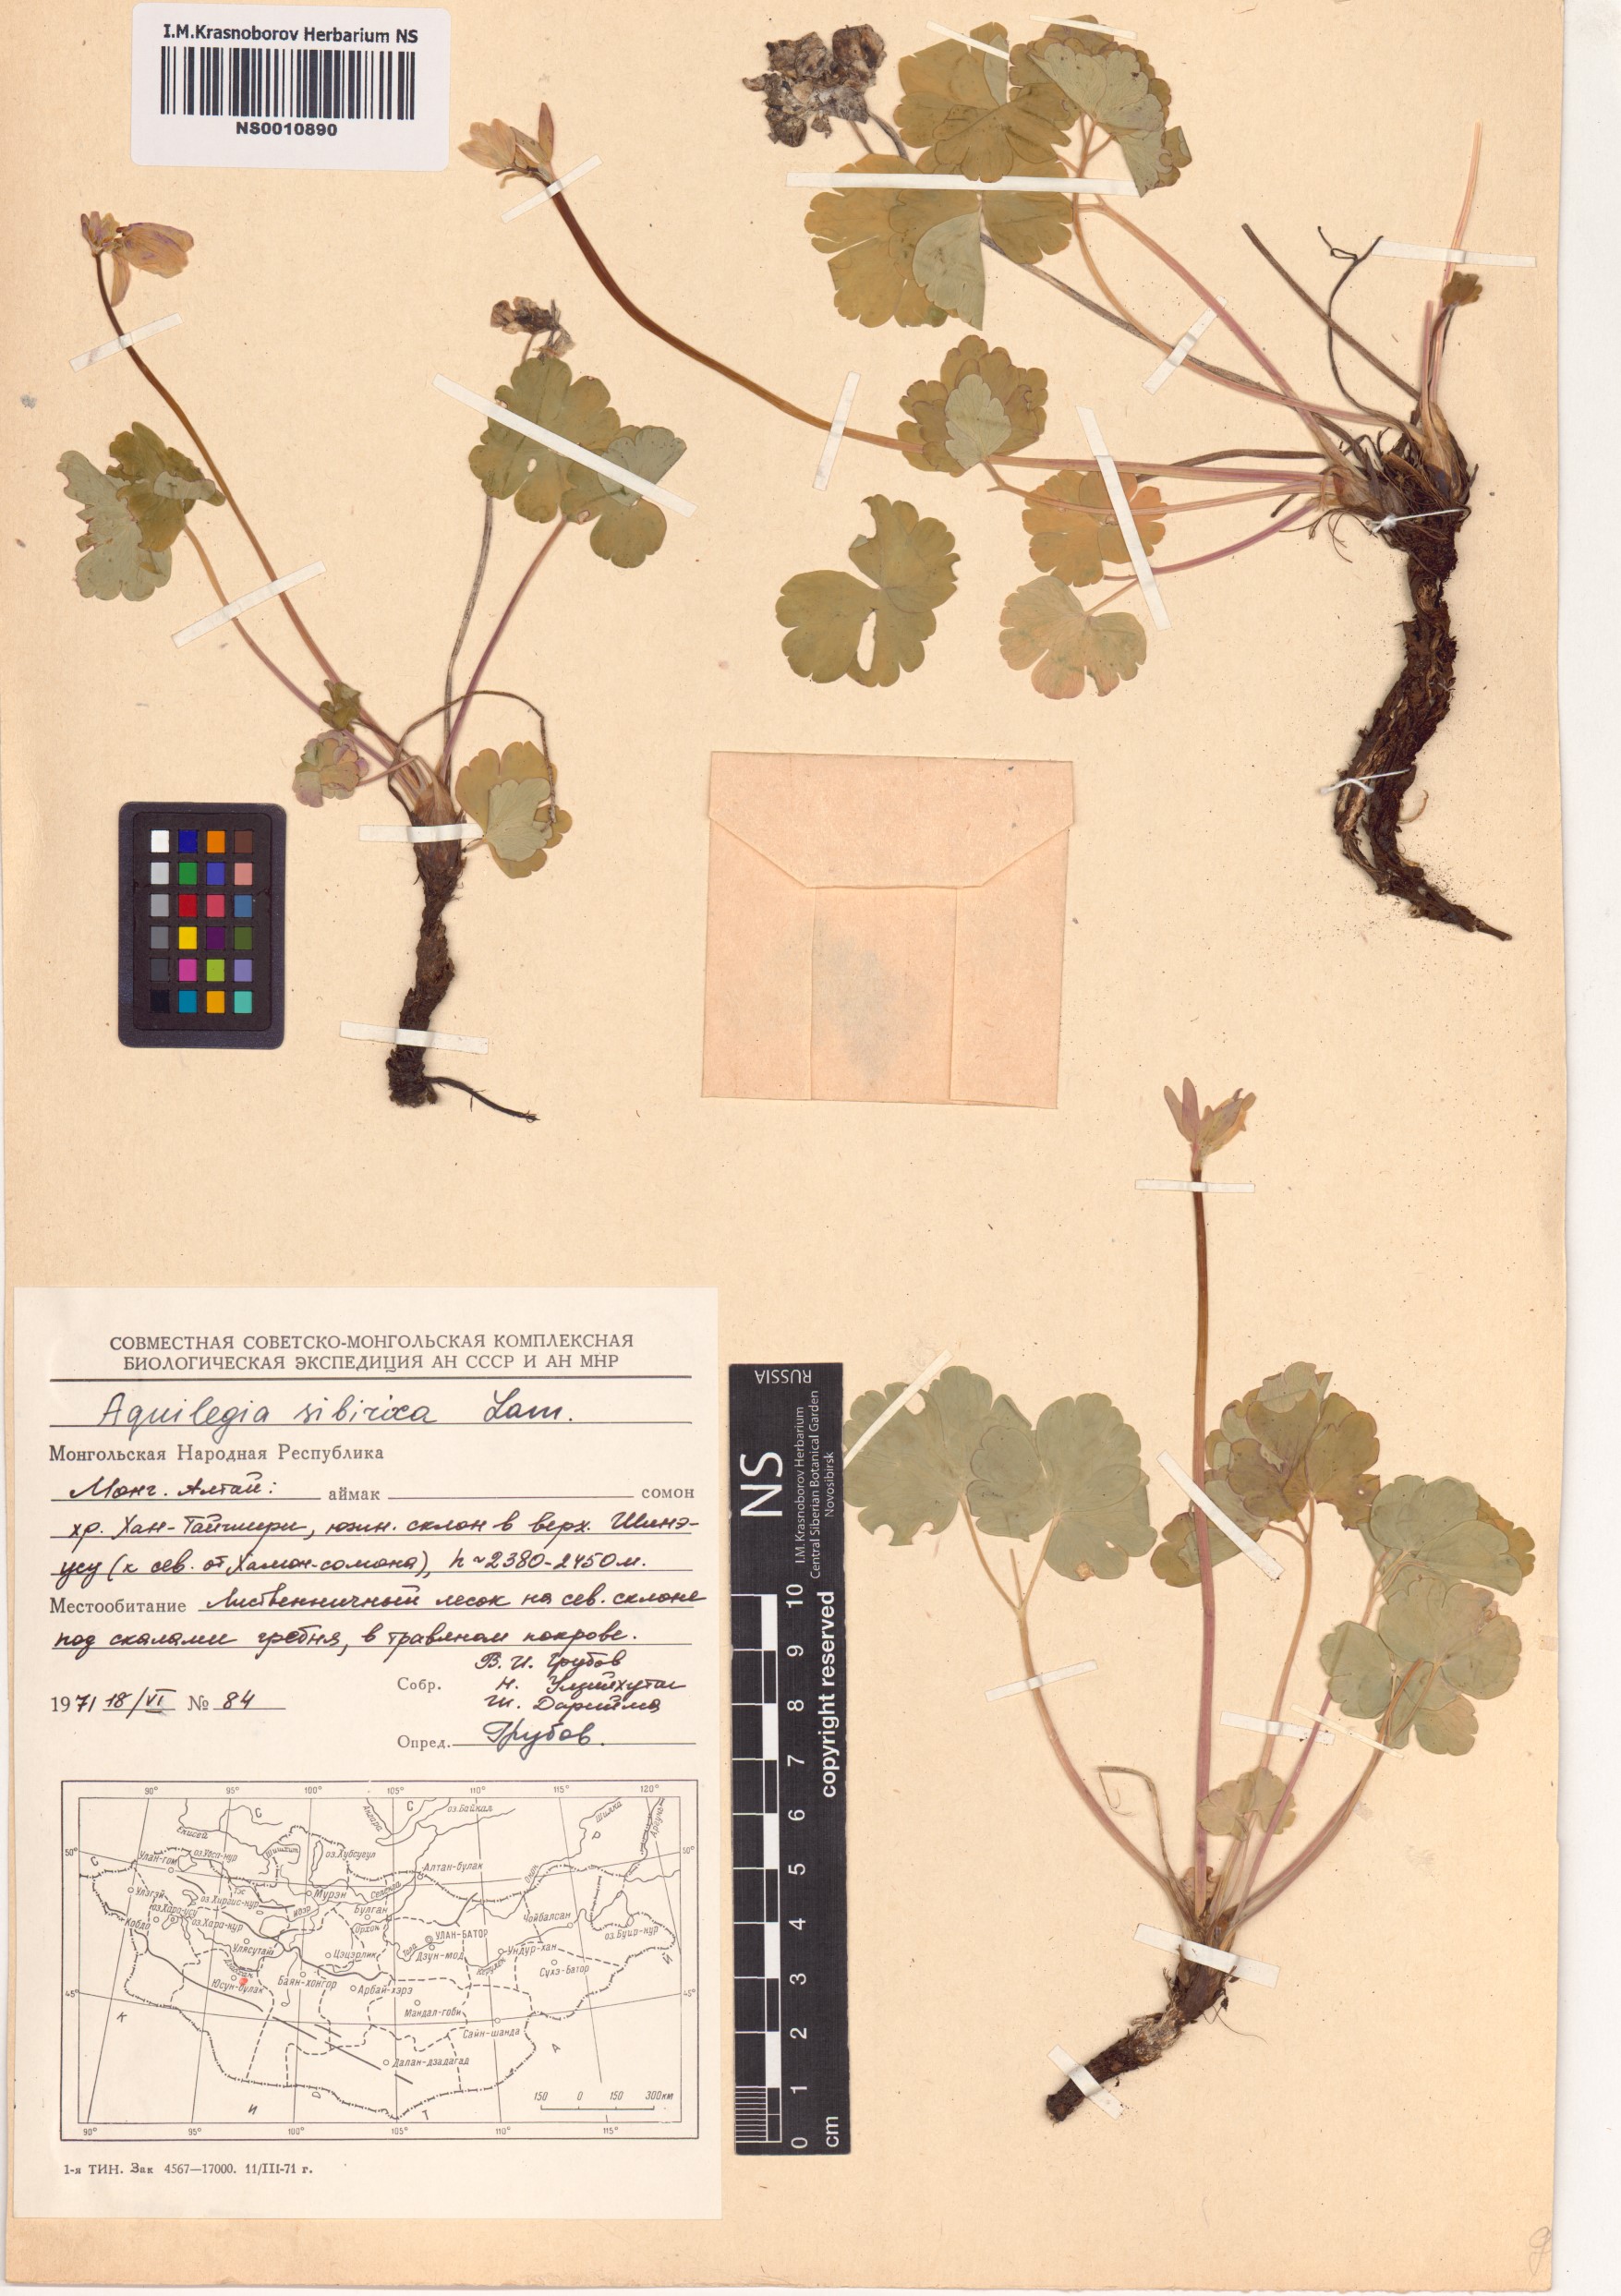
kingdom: Plantae
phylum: Tracheophyta
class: Magnoliopsida
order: Ranunculales
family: Ranunculaceae
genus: Aquilegia
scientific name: Aquilegia sibirica
